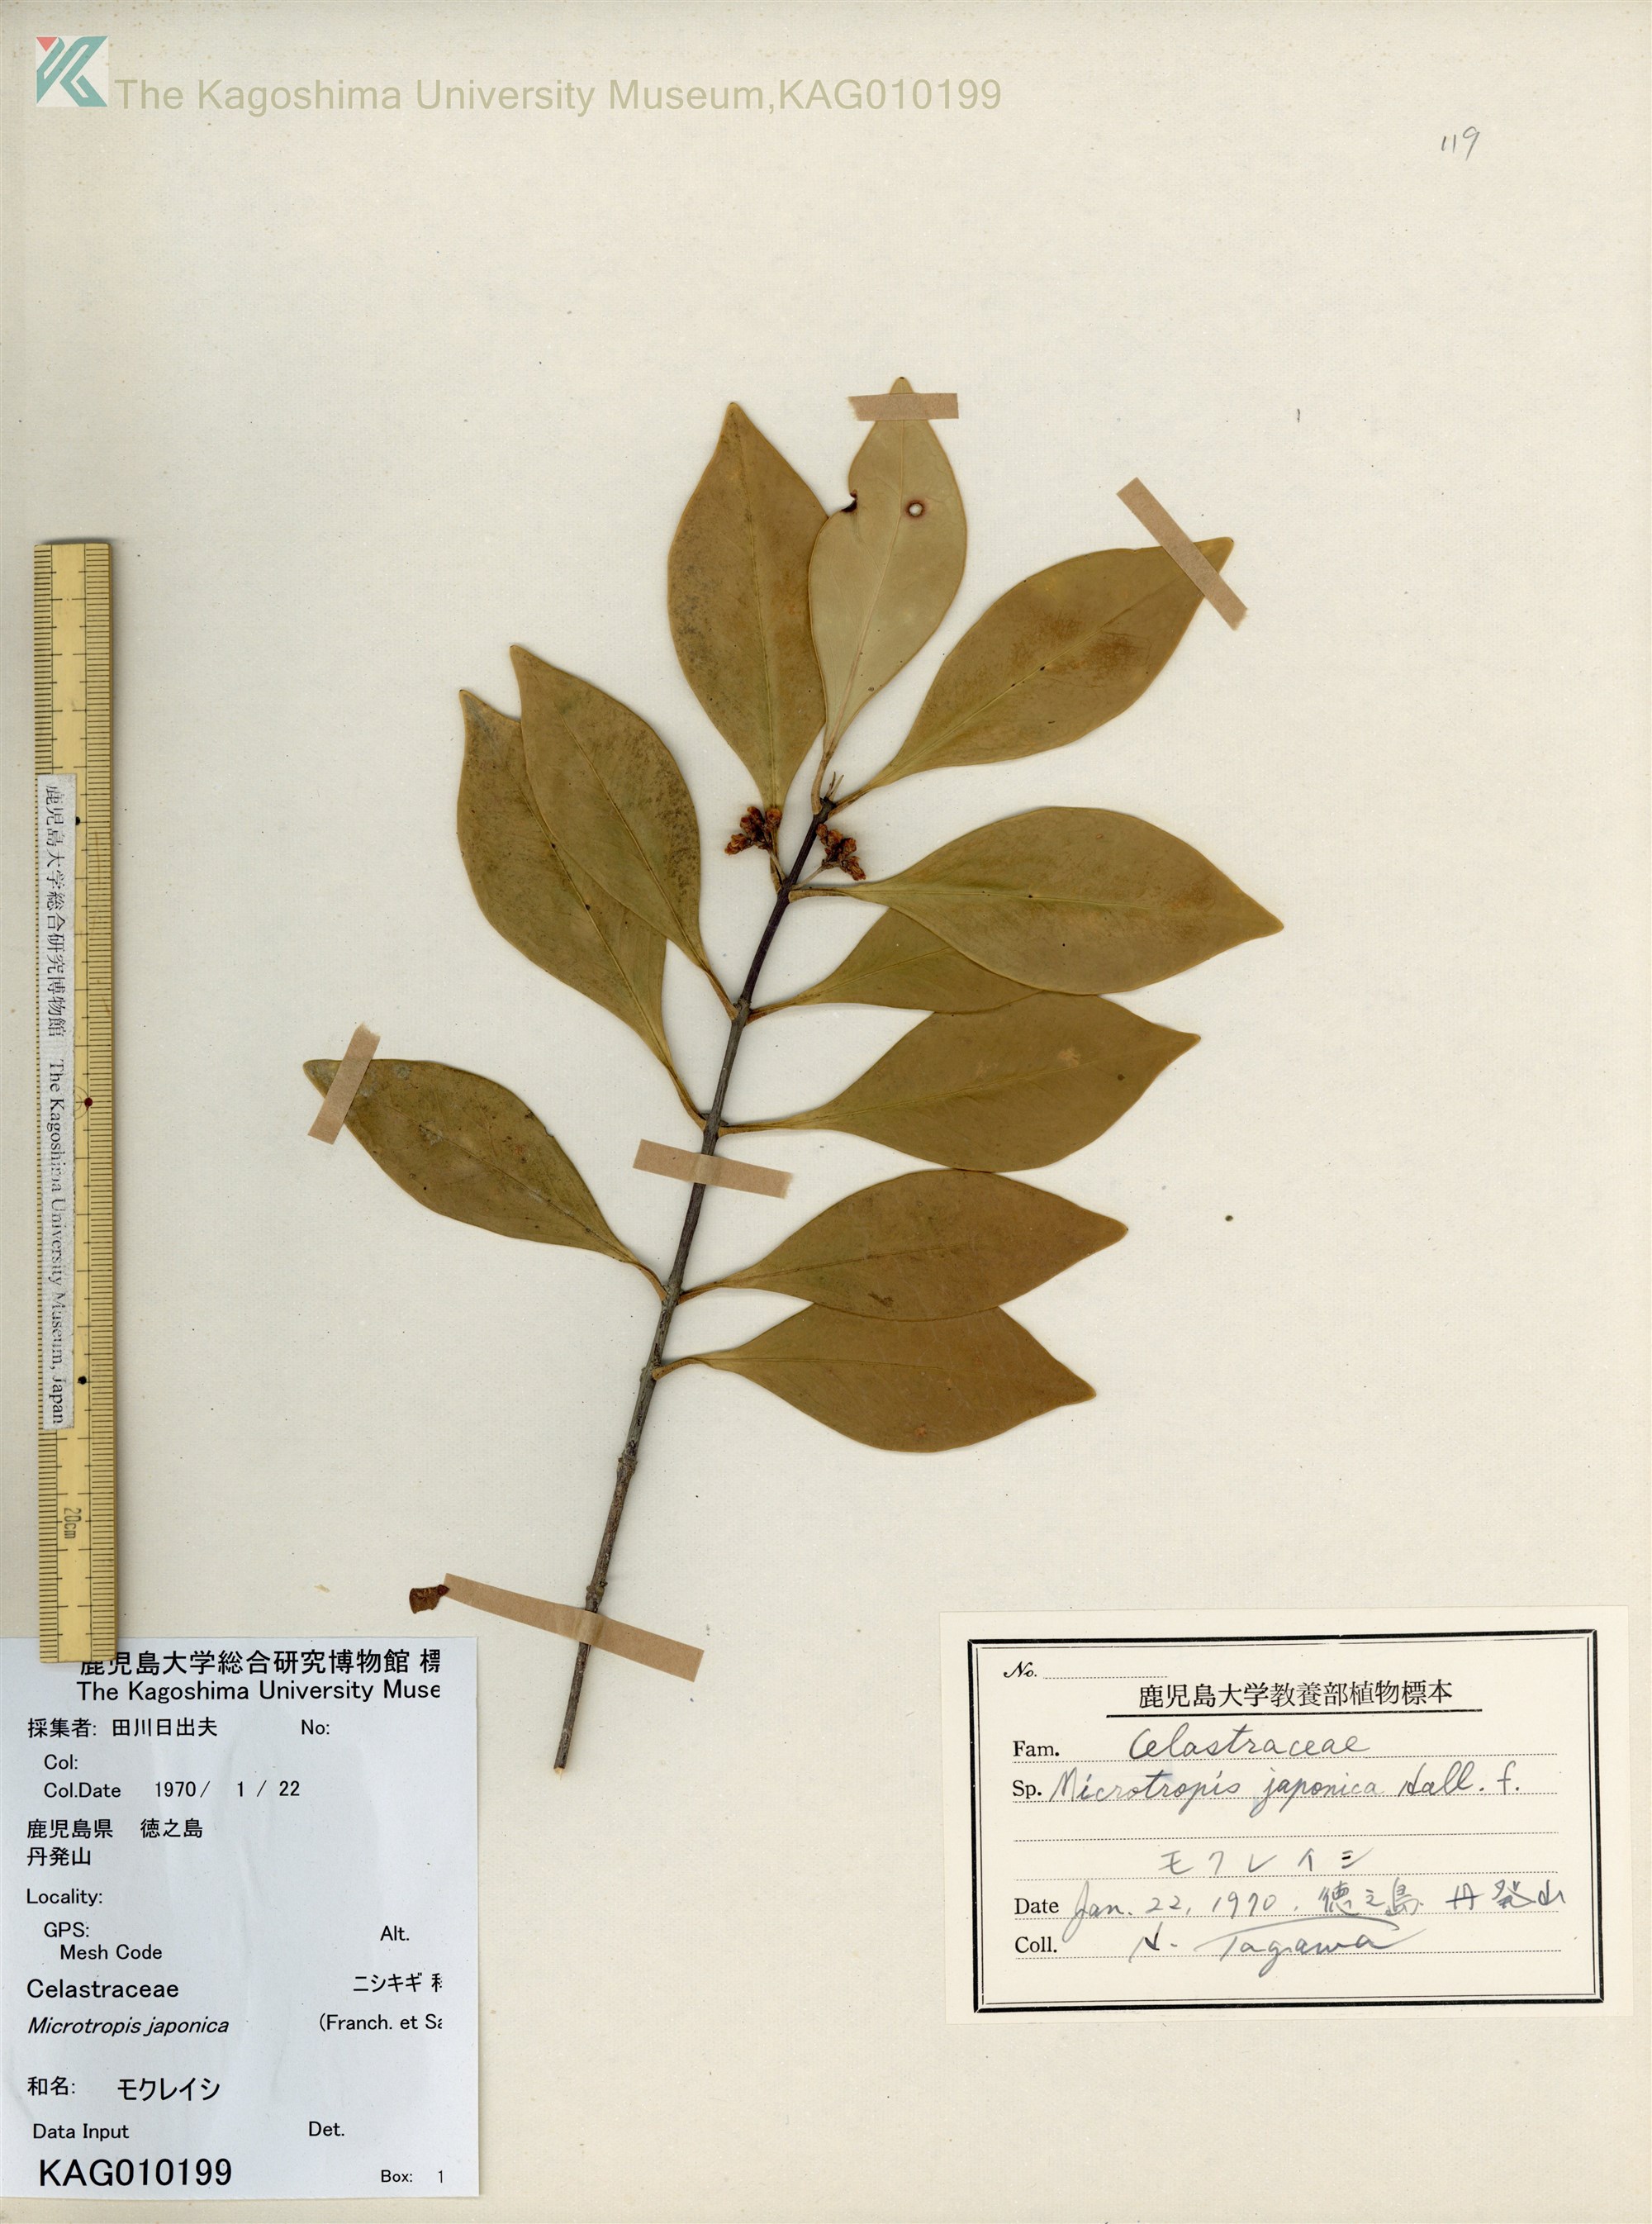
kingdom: Plantae
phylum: Tracheophyta
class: Magnoliopsida
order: Celastrales
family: Celastraceae
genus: Microtropis
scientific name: Microtropis japonica
